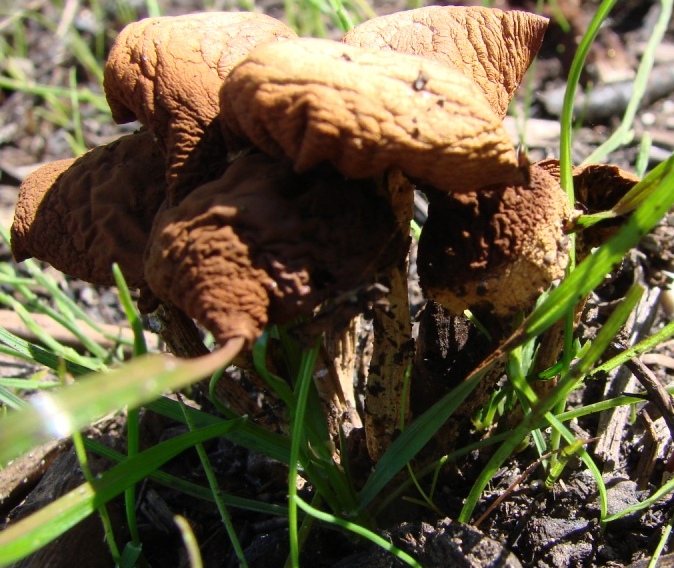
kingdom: Fungi
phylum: Basidiomycota
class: Agaricomycetes
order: Agaricales
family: Strophariaceae
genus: Agrocybe
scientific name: Agrocybe pediades
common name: almindelig agerhat
